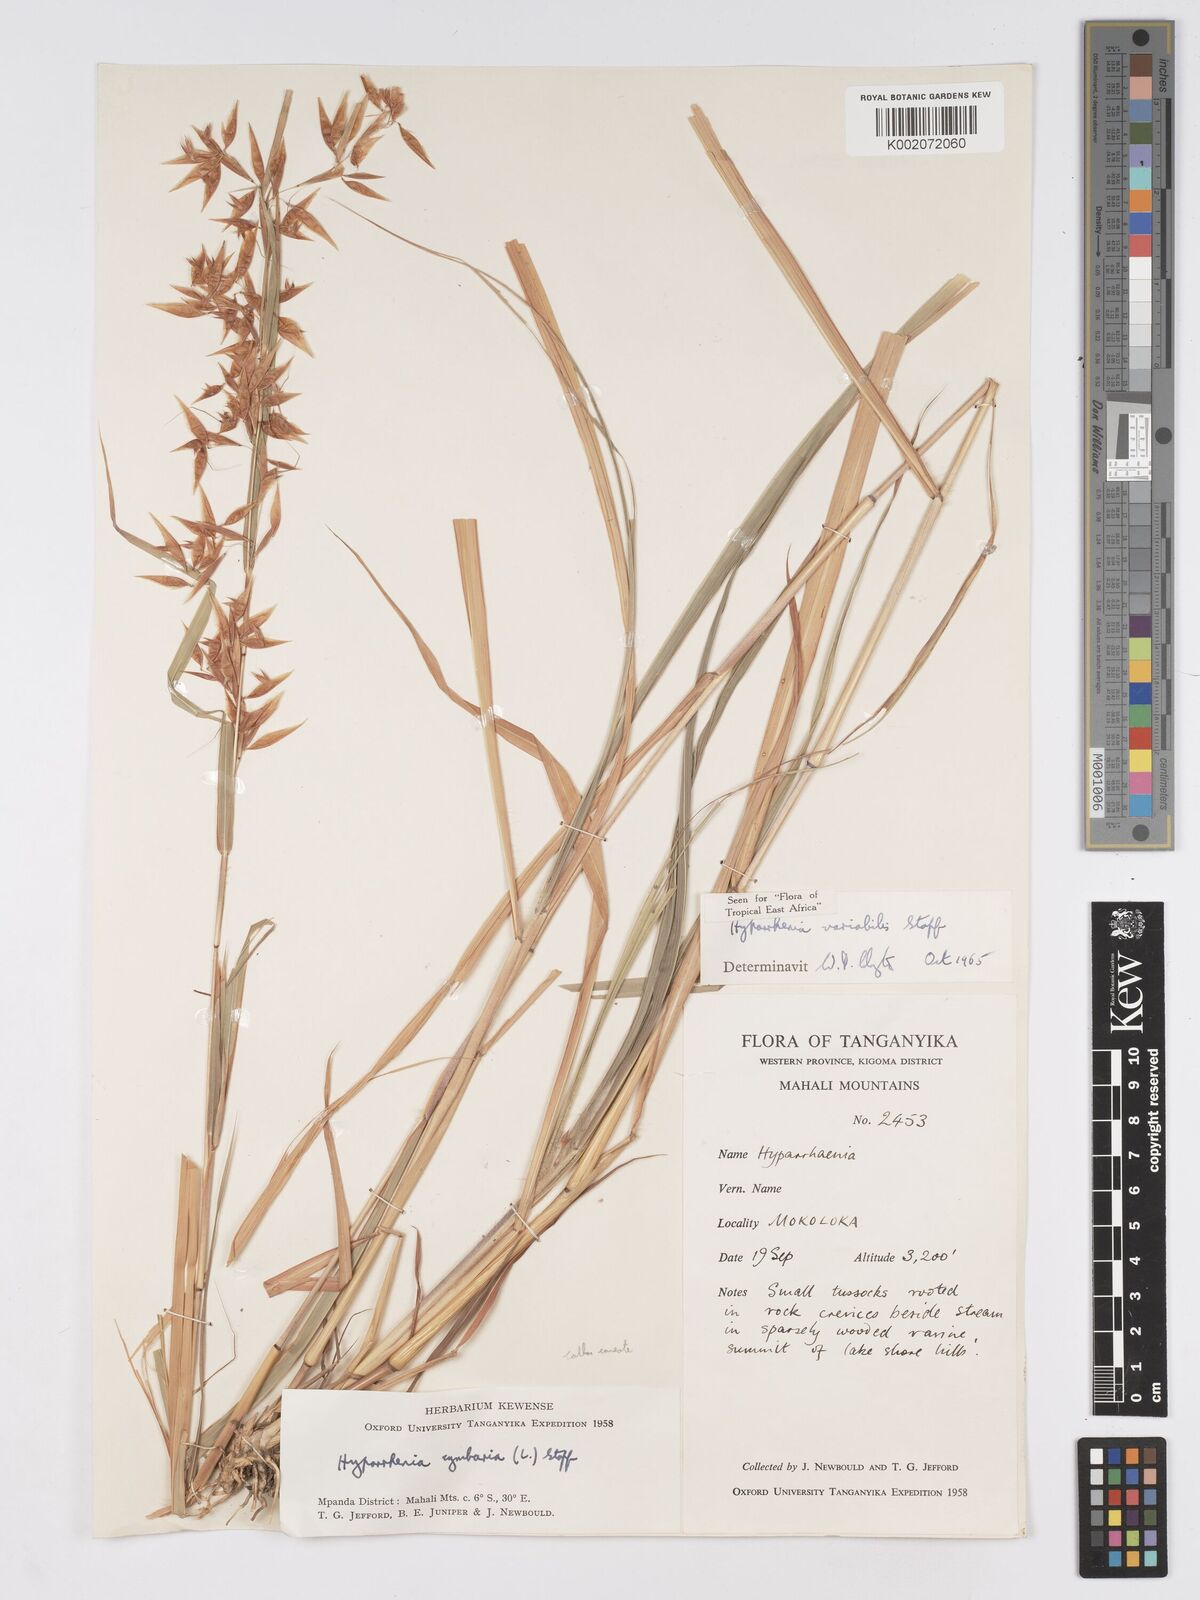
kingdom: Plantae
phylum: Tracheophyta
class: Liliopsida
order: Poales
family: Poaceae
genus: Hyparrhenia
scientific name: Hyparrhenia variabilis
